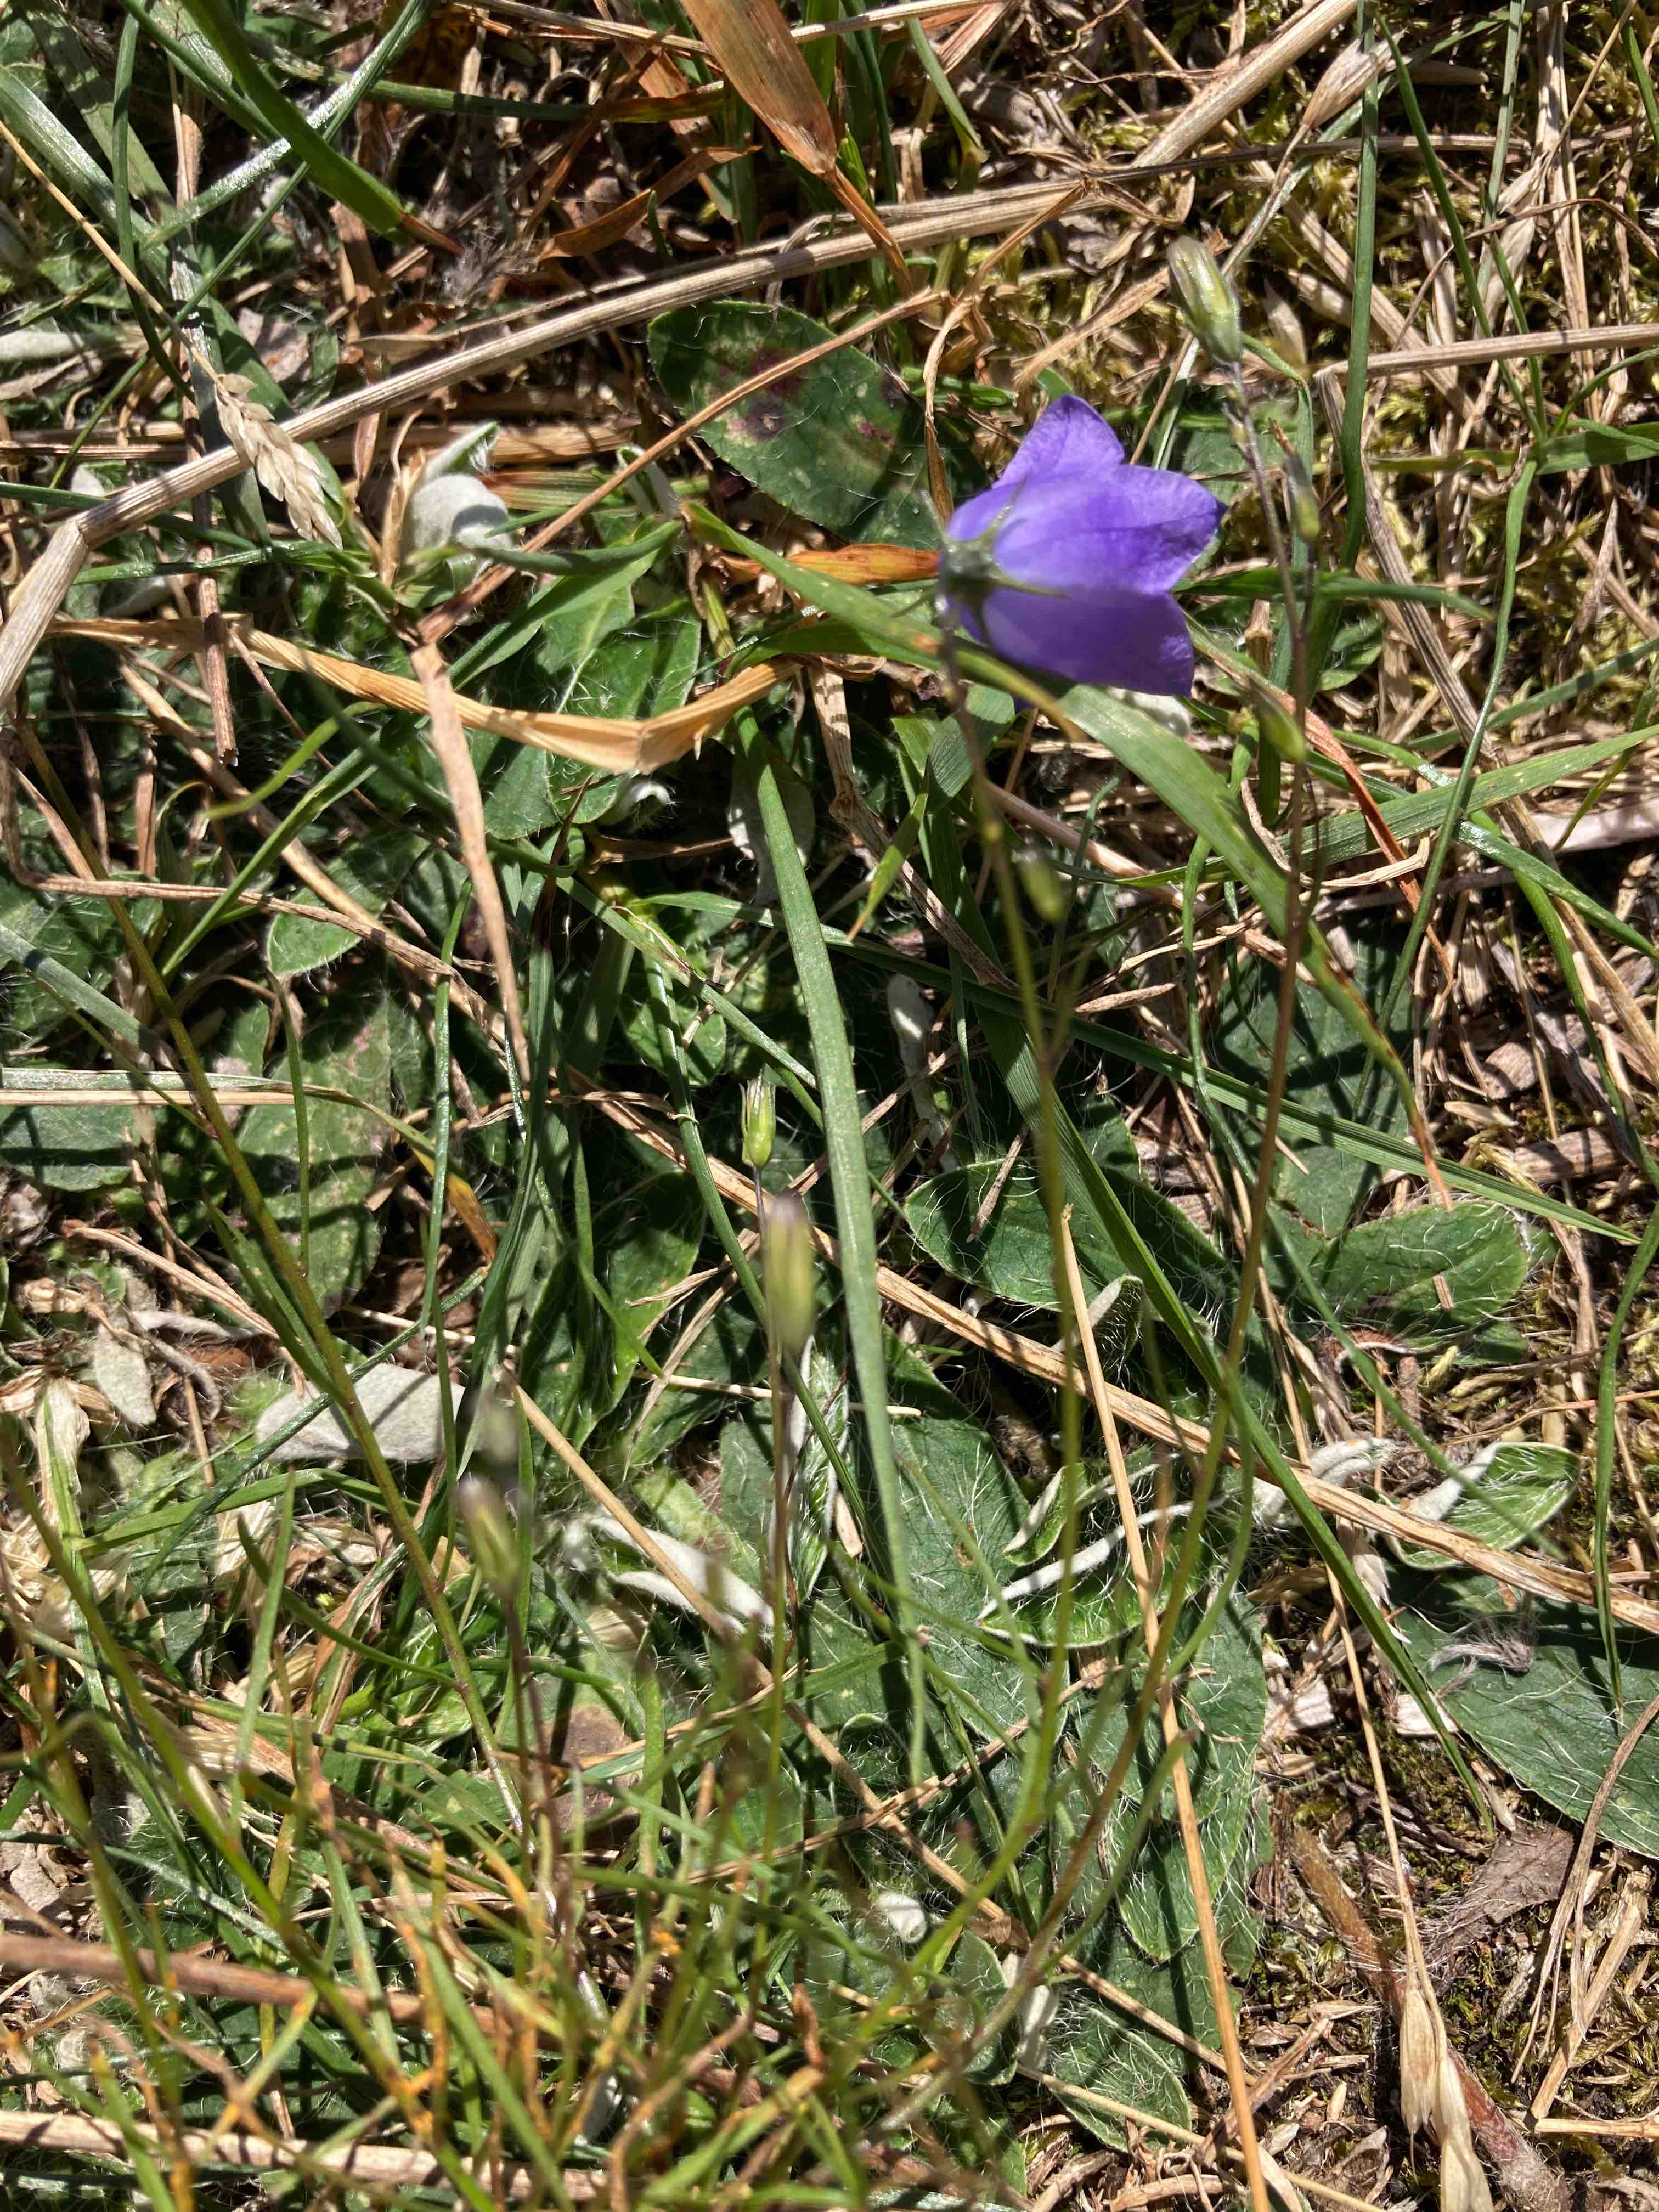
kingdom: Fungi
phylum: Basidiomycota
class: Pucciniomycetes
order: Pucciniales
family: Coleosporiaceae
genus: Coleosporium
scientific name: Coleosporium campanulae
